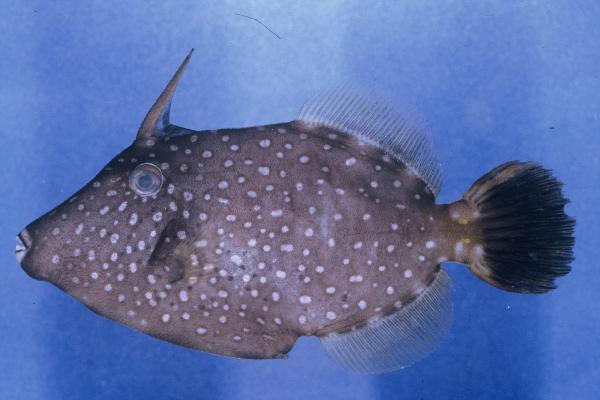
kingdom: Animalia
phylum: Chordata
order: Tetraodontiformes
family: Monacanthidae
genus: Cantherhines
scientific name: Cantherhines dumerilii
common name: Barred filefish
